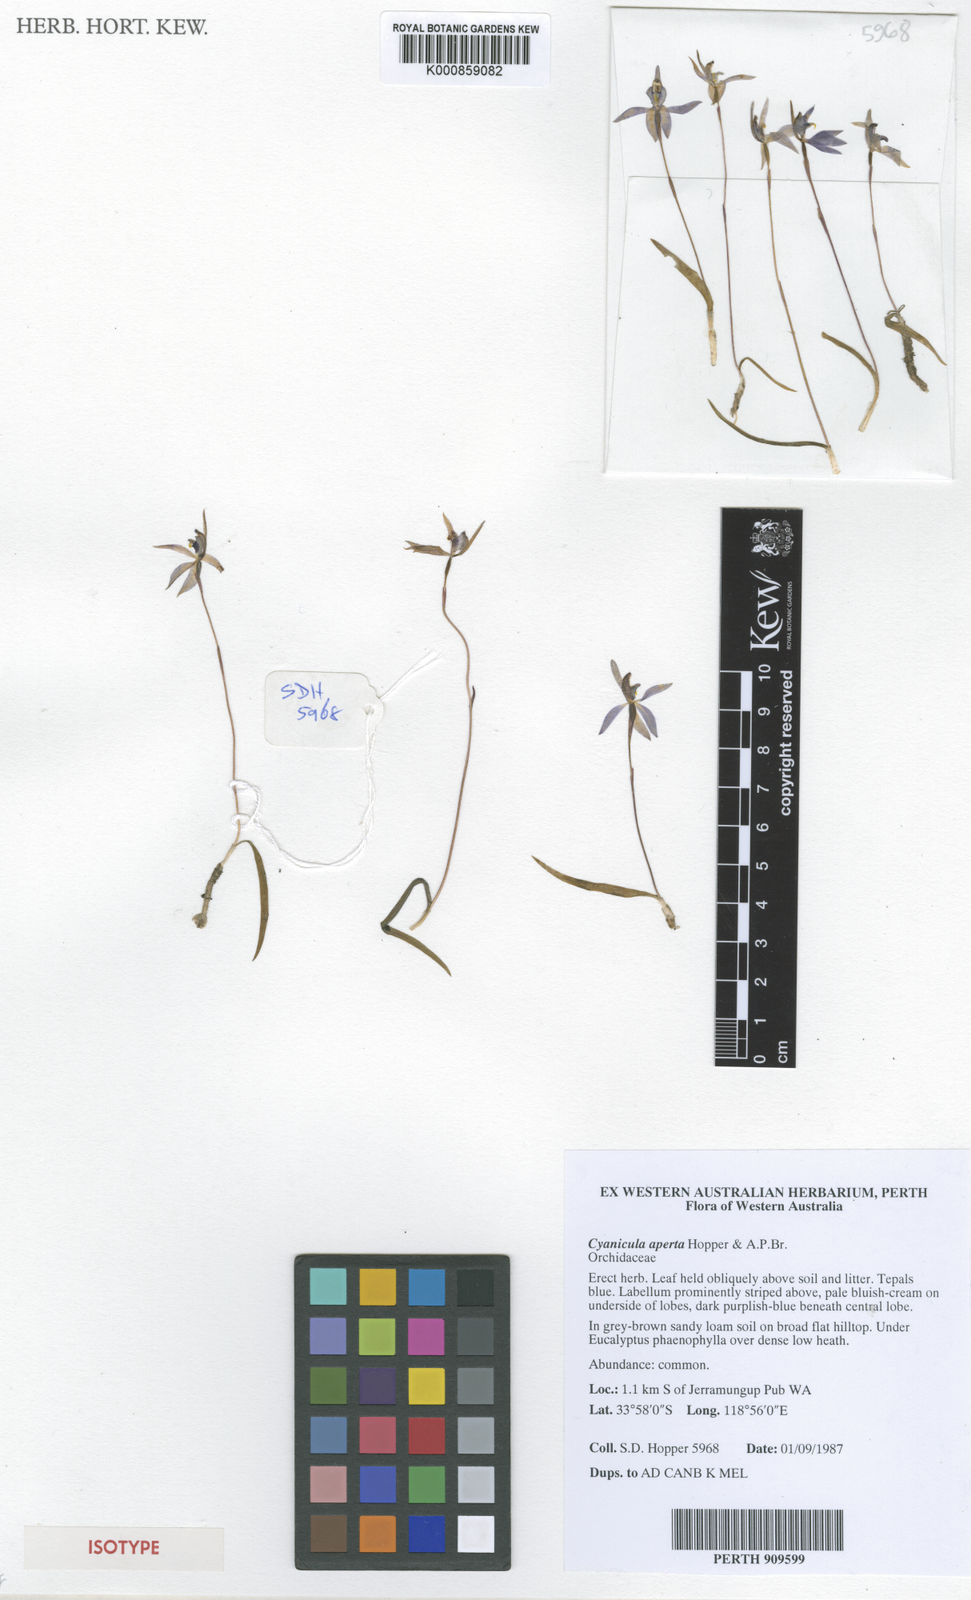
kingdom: Plantae
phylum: Tracheophyta
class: Liliopsida
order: Asparagales
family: Orchidaceae
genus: Caladenia
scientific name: Caladenia aperta
